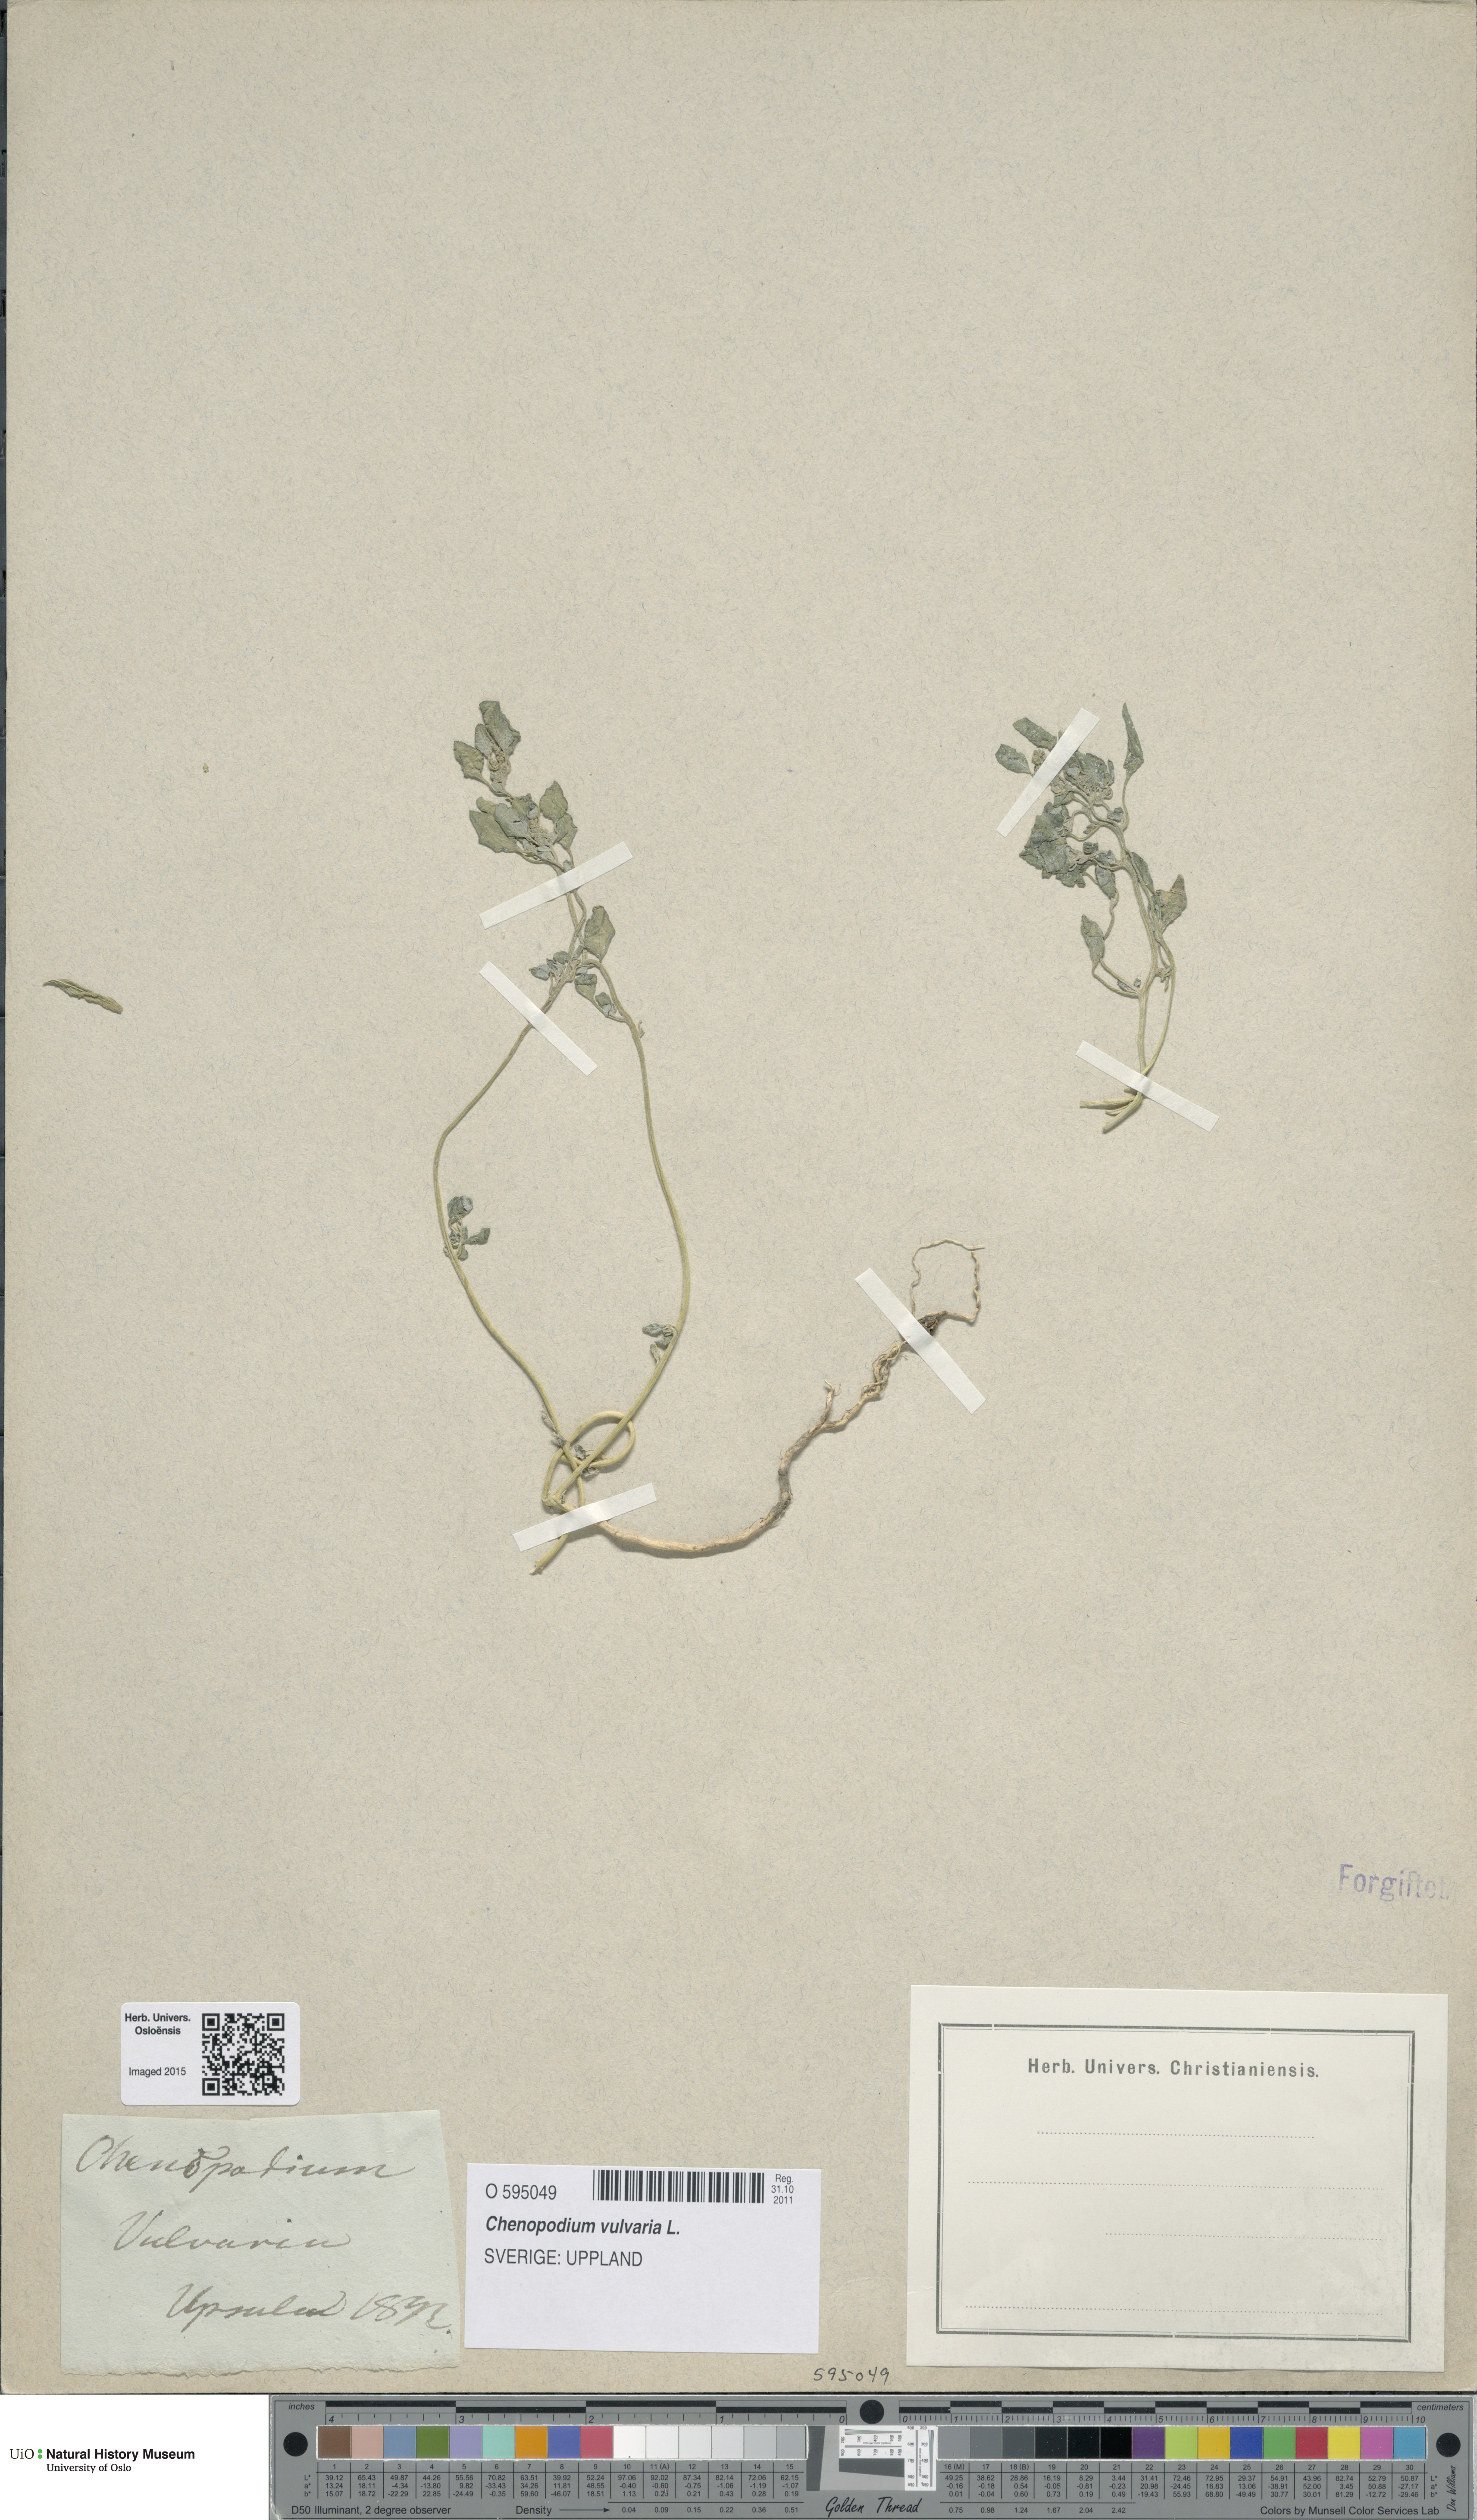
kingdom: Plantae
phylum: Tracheophyta
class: Magnoliopsida
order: Caryophyllales
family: Amaranthaceae
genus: Chenopodium
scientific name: Chenopodium vulvaria
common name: Stinking goosefoot
